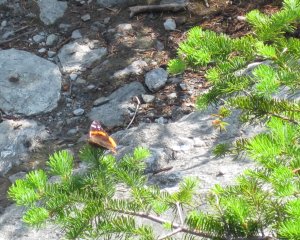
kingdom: Animalia
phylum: Arthropoda
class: Insecta
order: Lepidoptera
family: Nymphalidae
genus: Vanessa
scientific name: Vanessa atalanta
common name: Red Admiral
